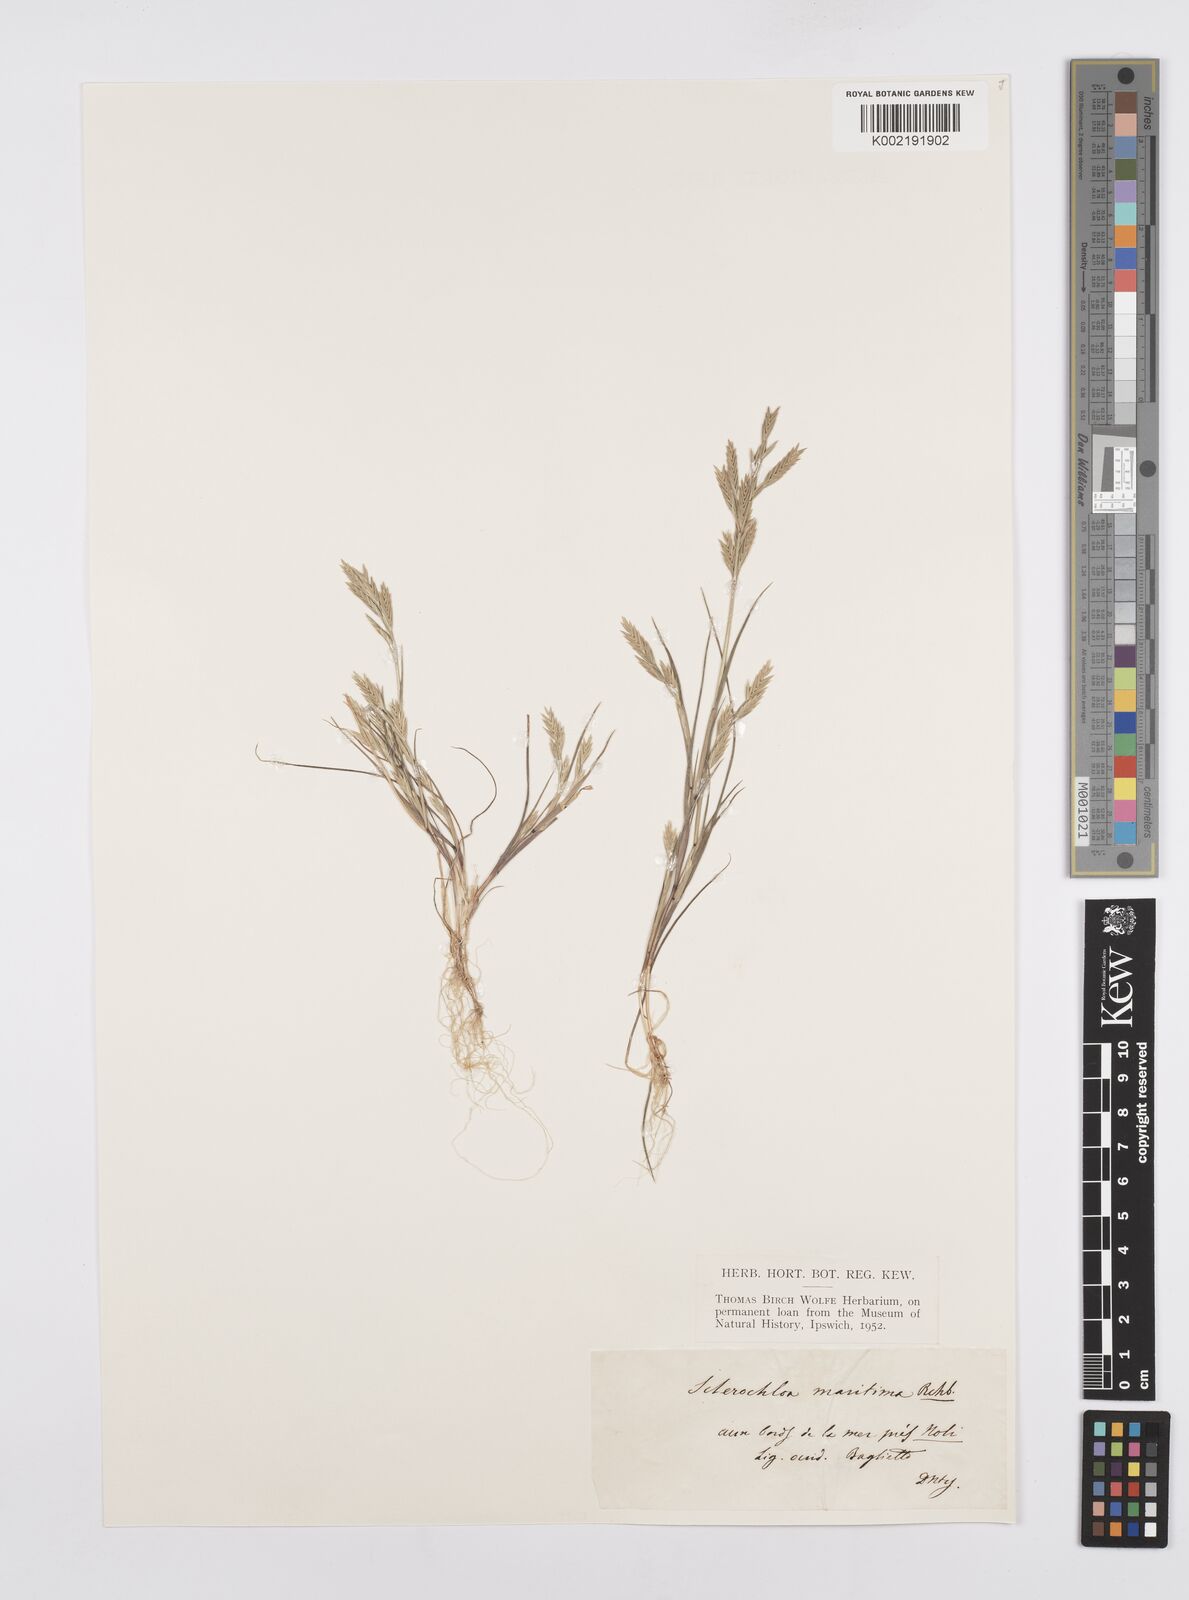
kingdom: Plantae
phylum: Tracheophyta
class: Liliopsida
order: Poales
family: Poaceae
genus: Cutandia
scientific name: Cutandia maritima
